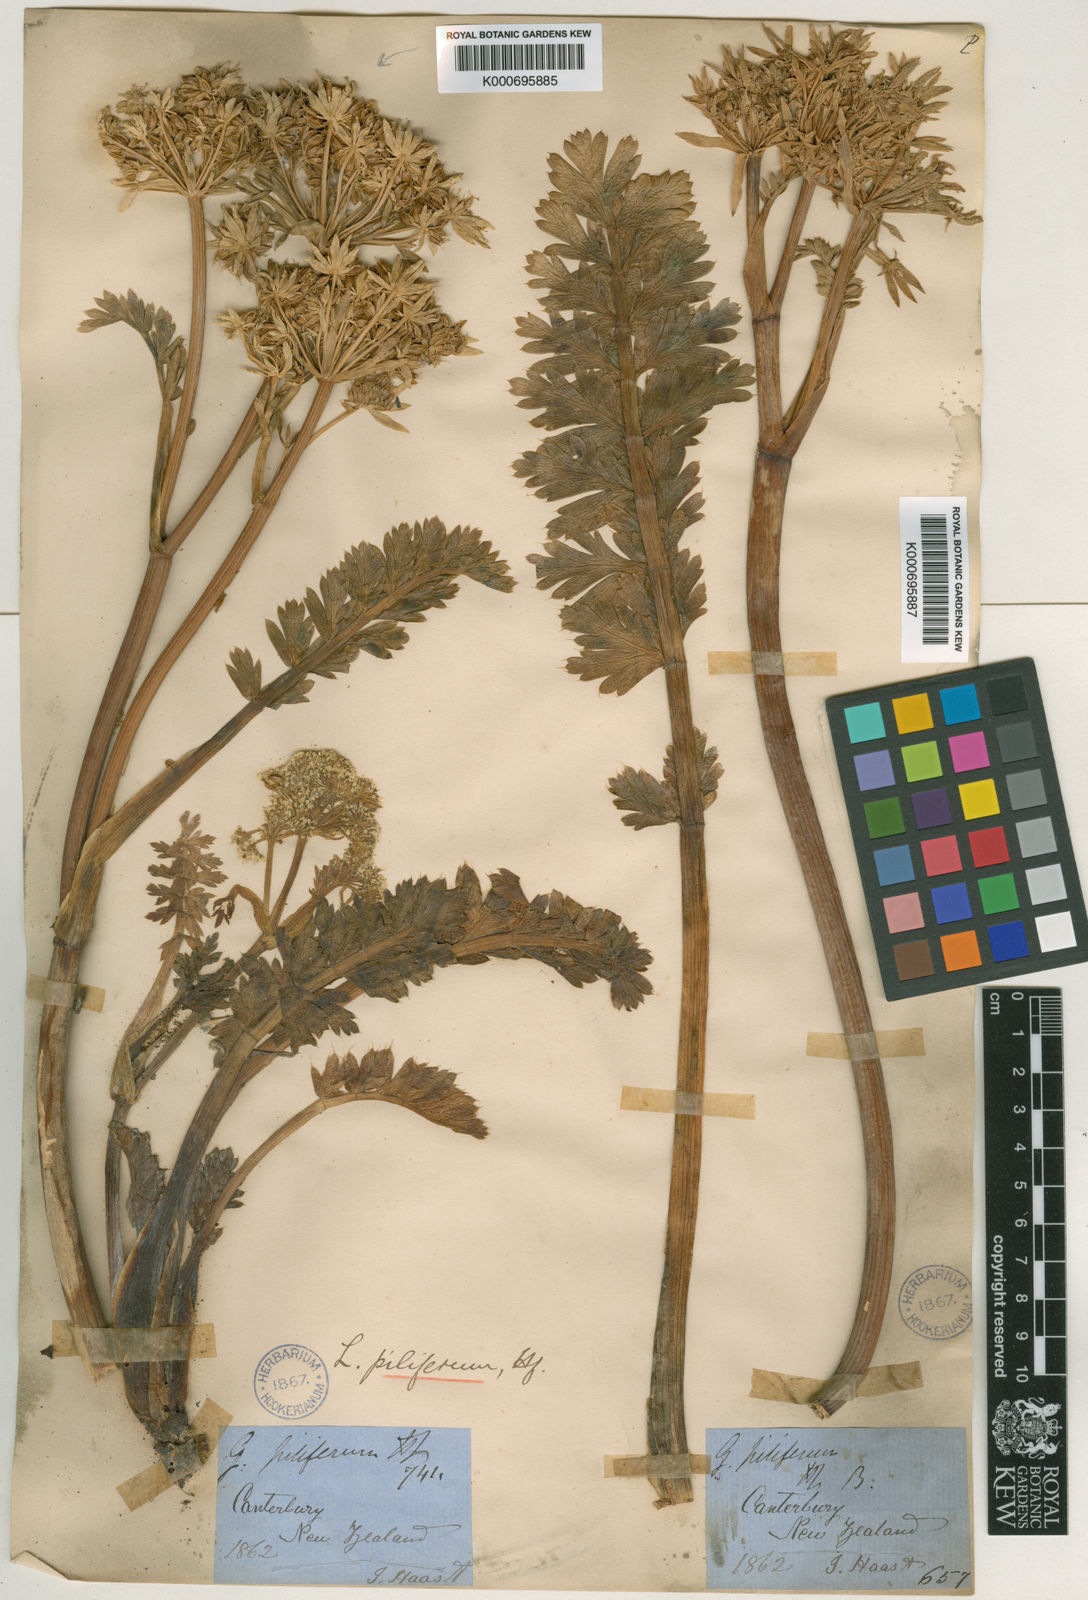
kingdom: Plantae
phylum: Tracheophyta
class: Magnoliopsida
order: Apiales
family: Apiaceae
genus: Anisotome
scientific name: Anisotome pilifera
